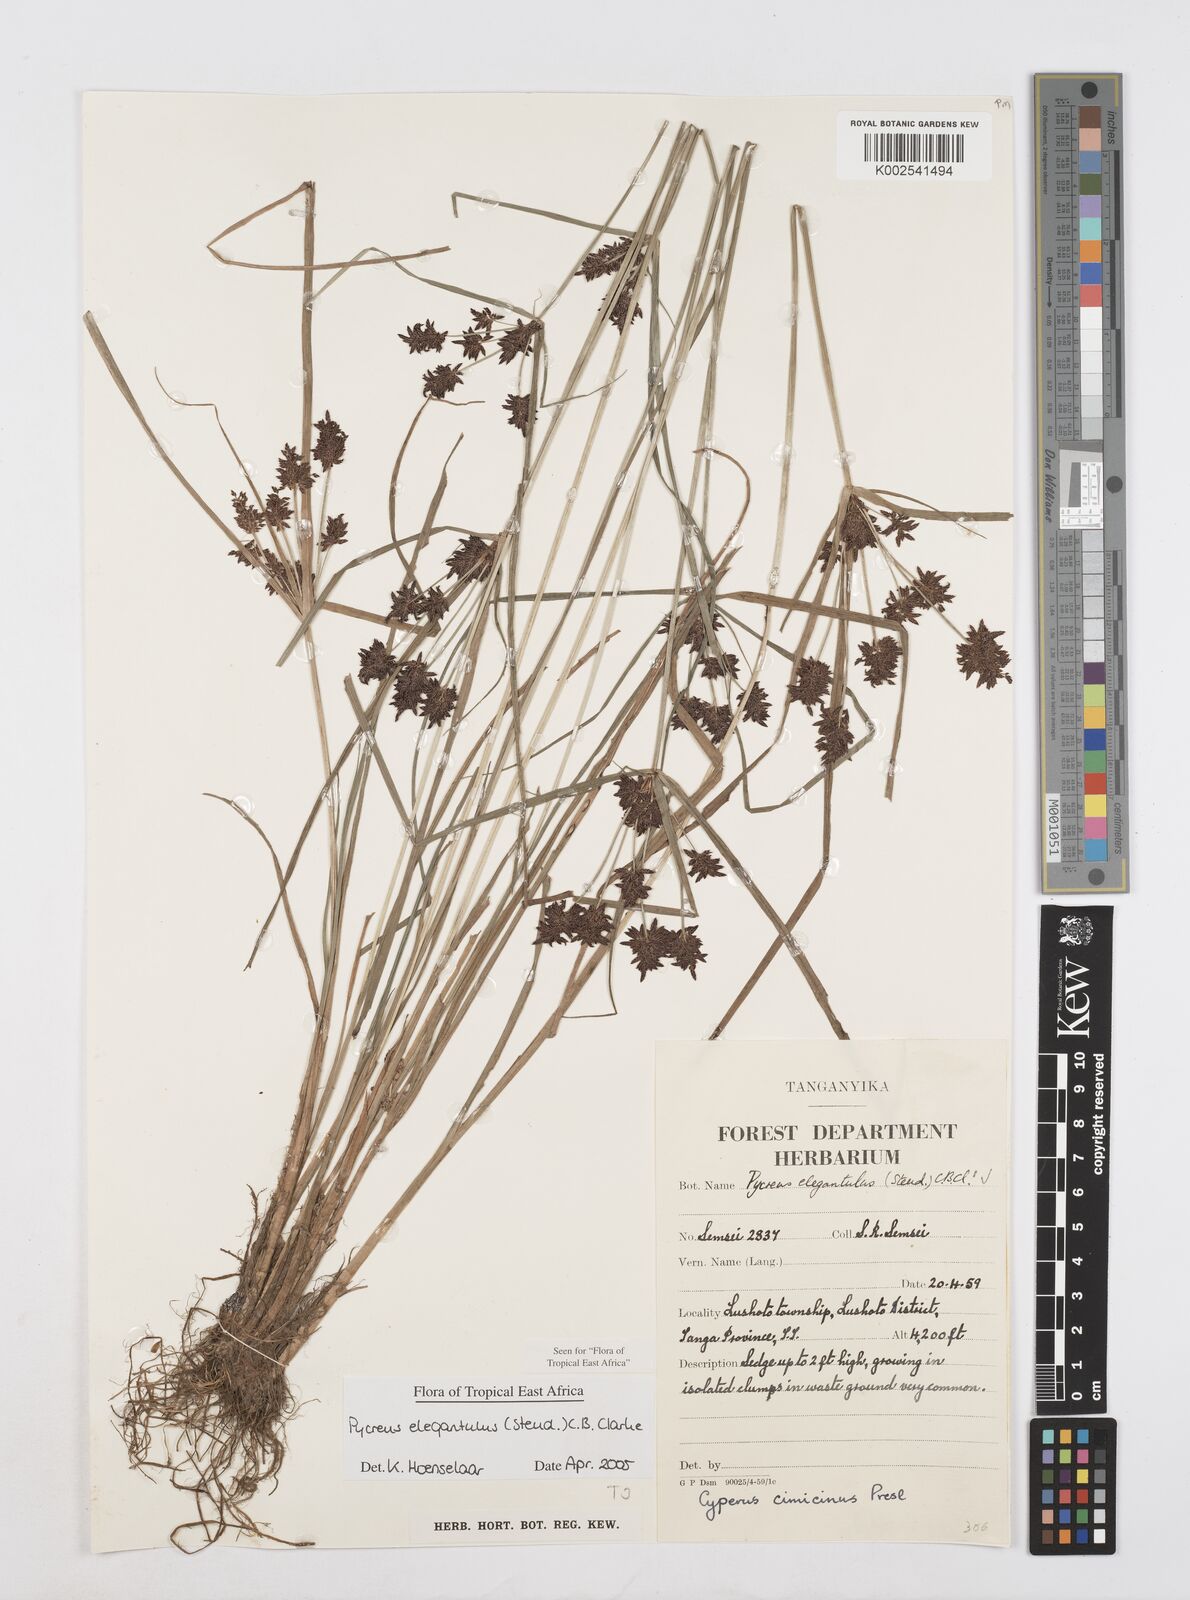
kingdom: Plantae
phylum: Tracheophyta
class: Liliopsida
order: Poales
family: Cyperaceae
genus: Cyperus
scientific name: Cyperus elegantulus
